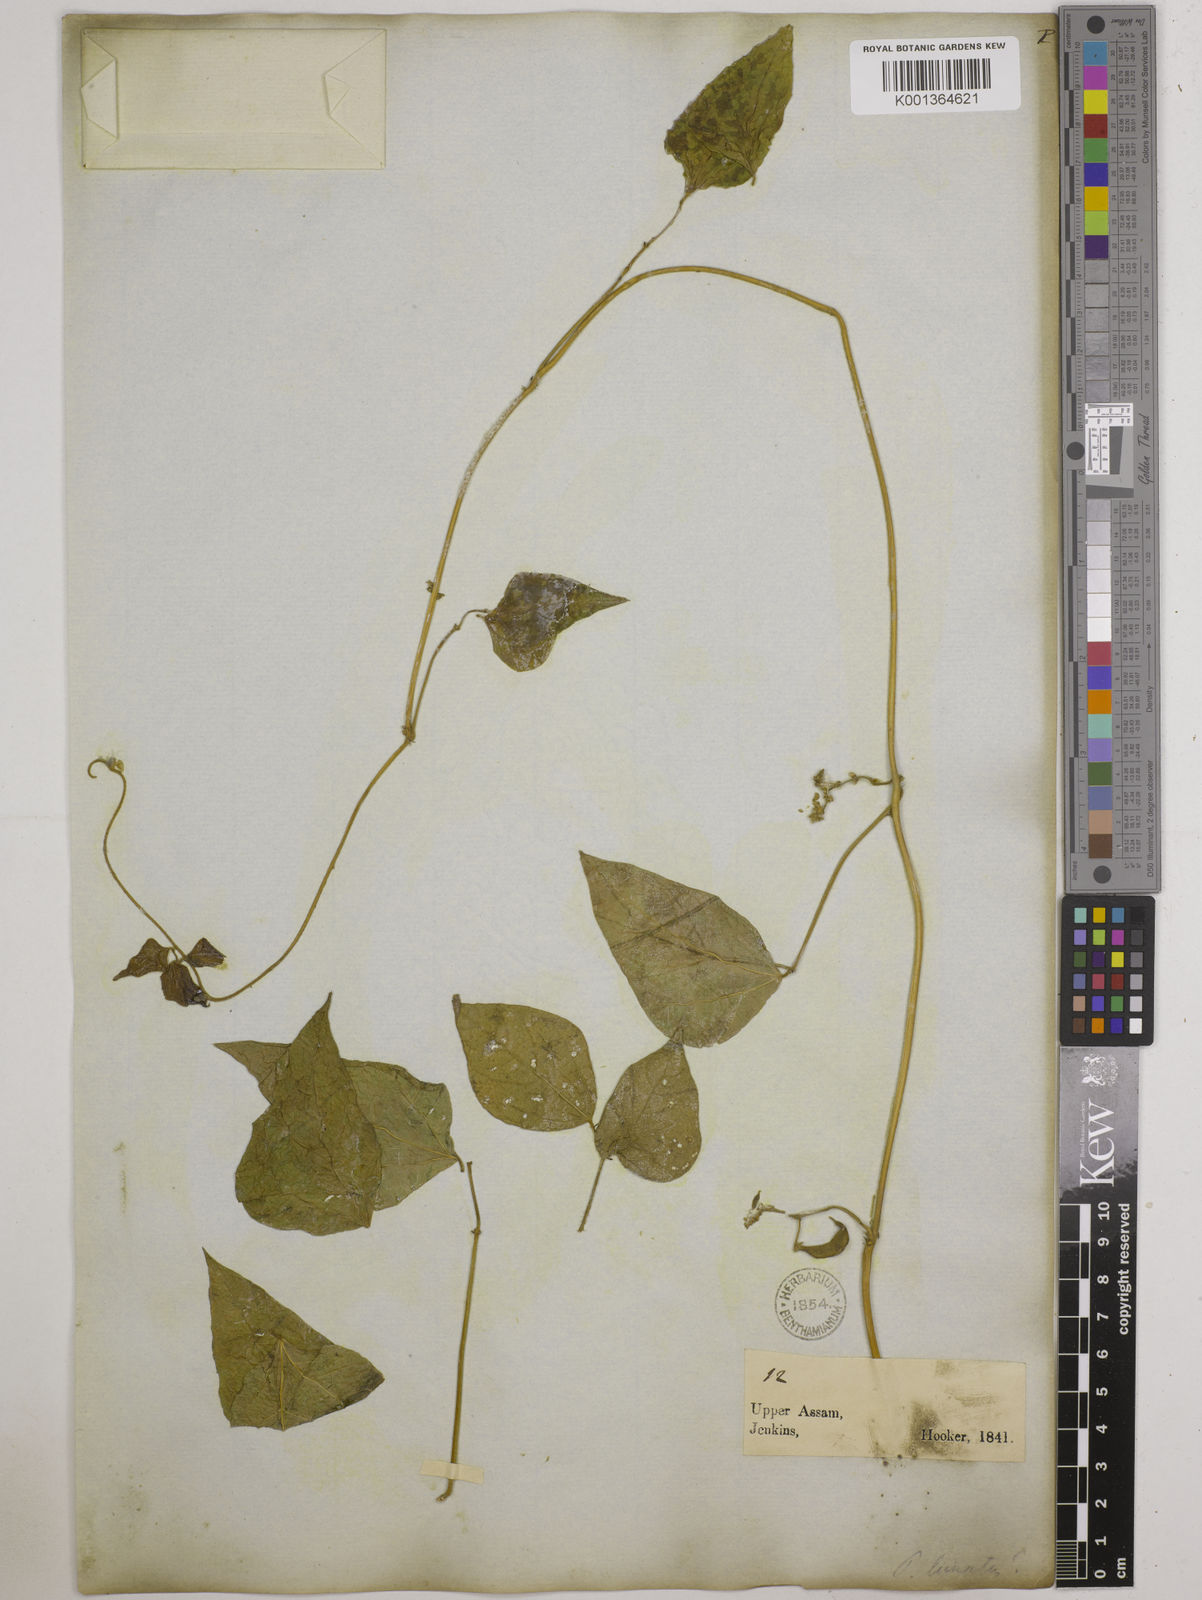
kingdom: Plantae
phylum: Tracheophyta
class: Magnoliopsida
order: Fabales
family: Fabaceae
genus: Phaseolus
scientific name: Phaseolus lunatus
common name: Sieva bean
